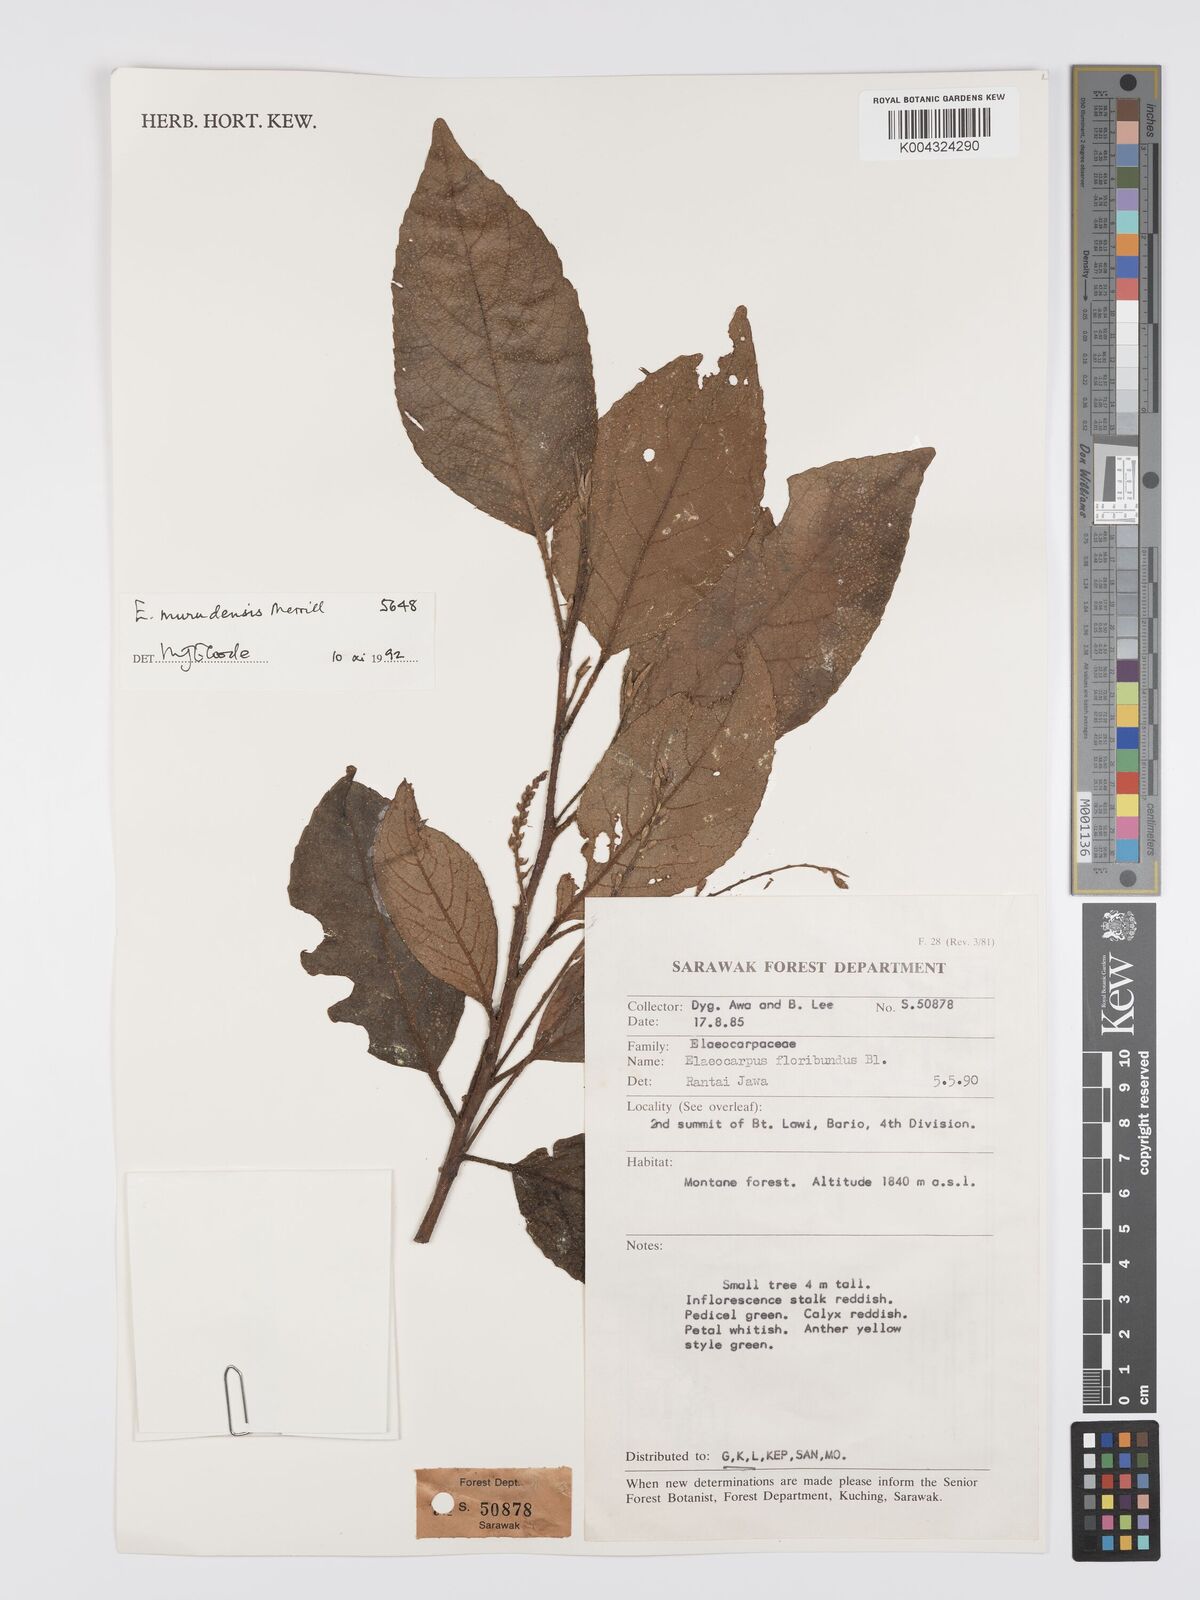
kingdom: Plantae
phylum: Tracheophyta
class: Magnoliopsida
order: Oxalidales
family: Elaeocarpaceae
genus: Elaeocarpus
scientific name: Elaeocarpus murudensis
